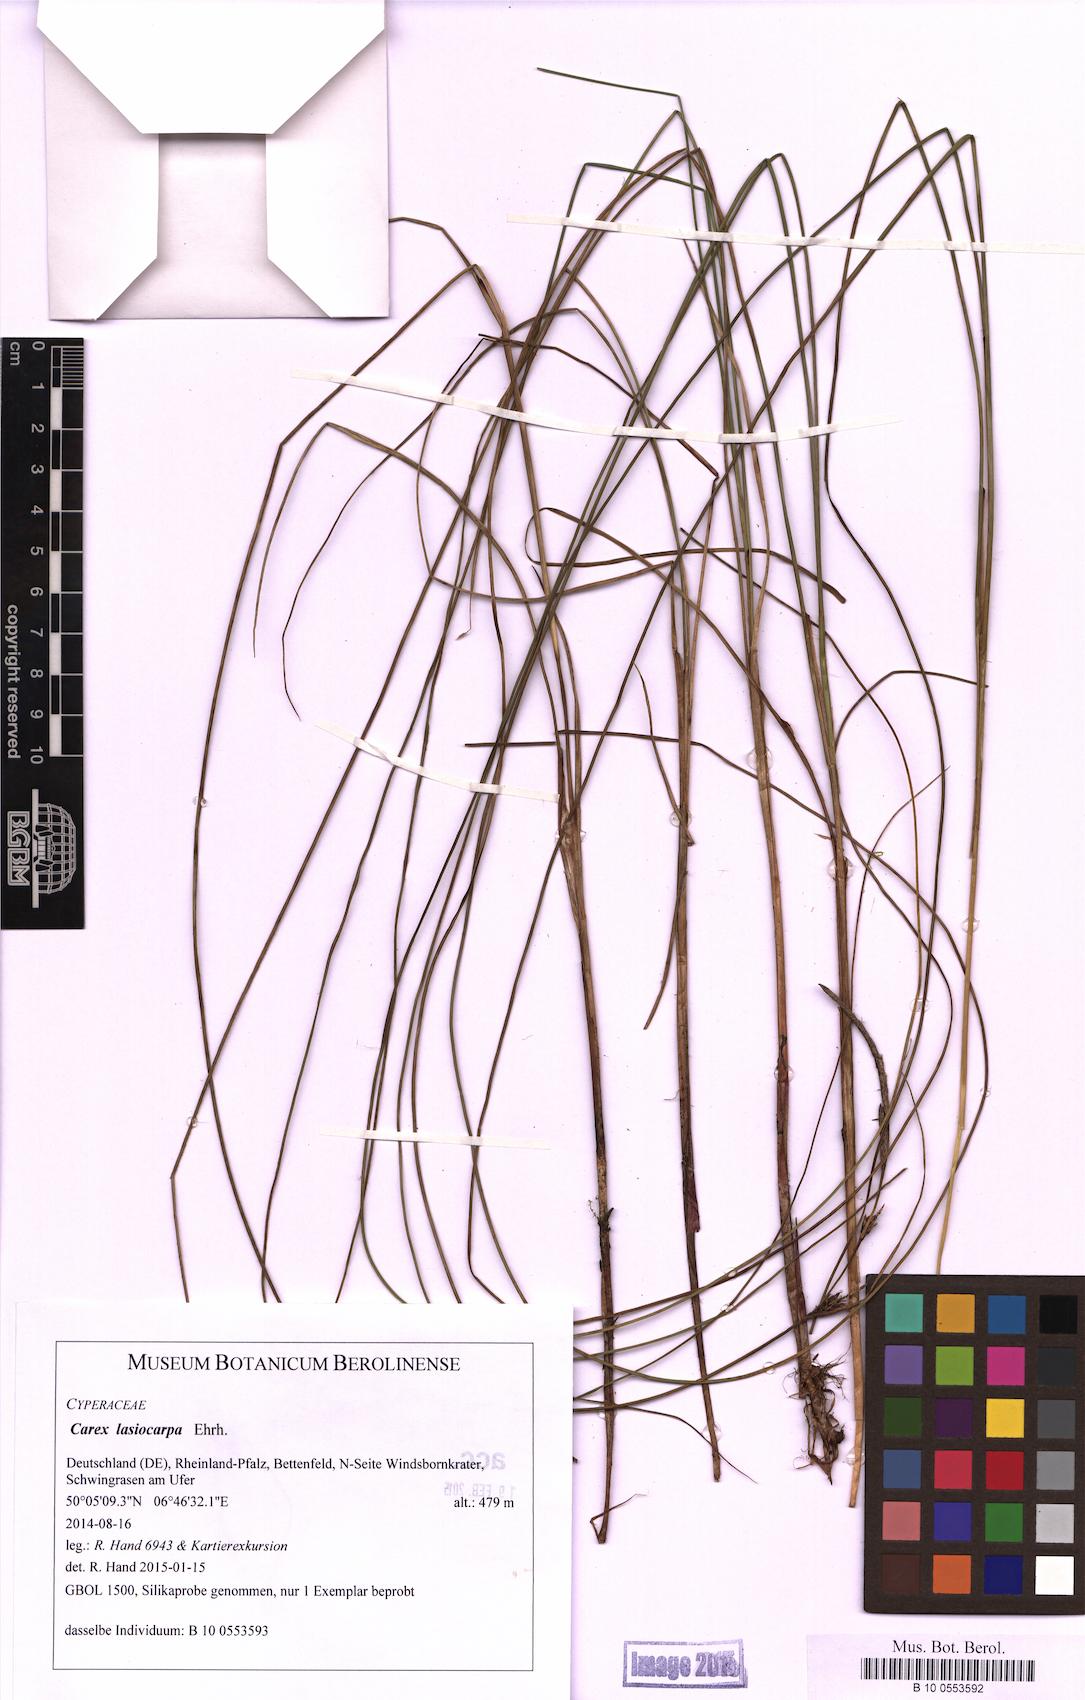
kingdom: Plantae
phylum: Tracheophyta
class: Liliopsida
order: Poales
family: Cyperaceae
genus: Carex
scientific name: Carex lasiocarpa
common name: Slender sedge
